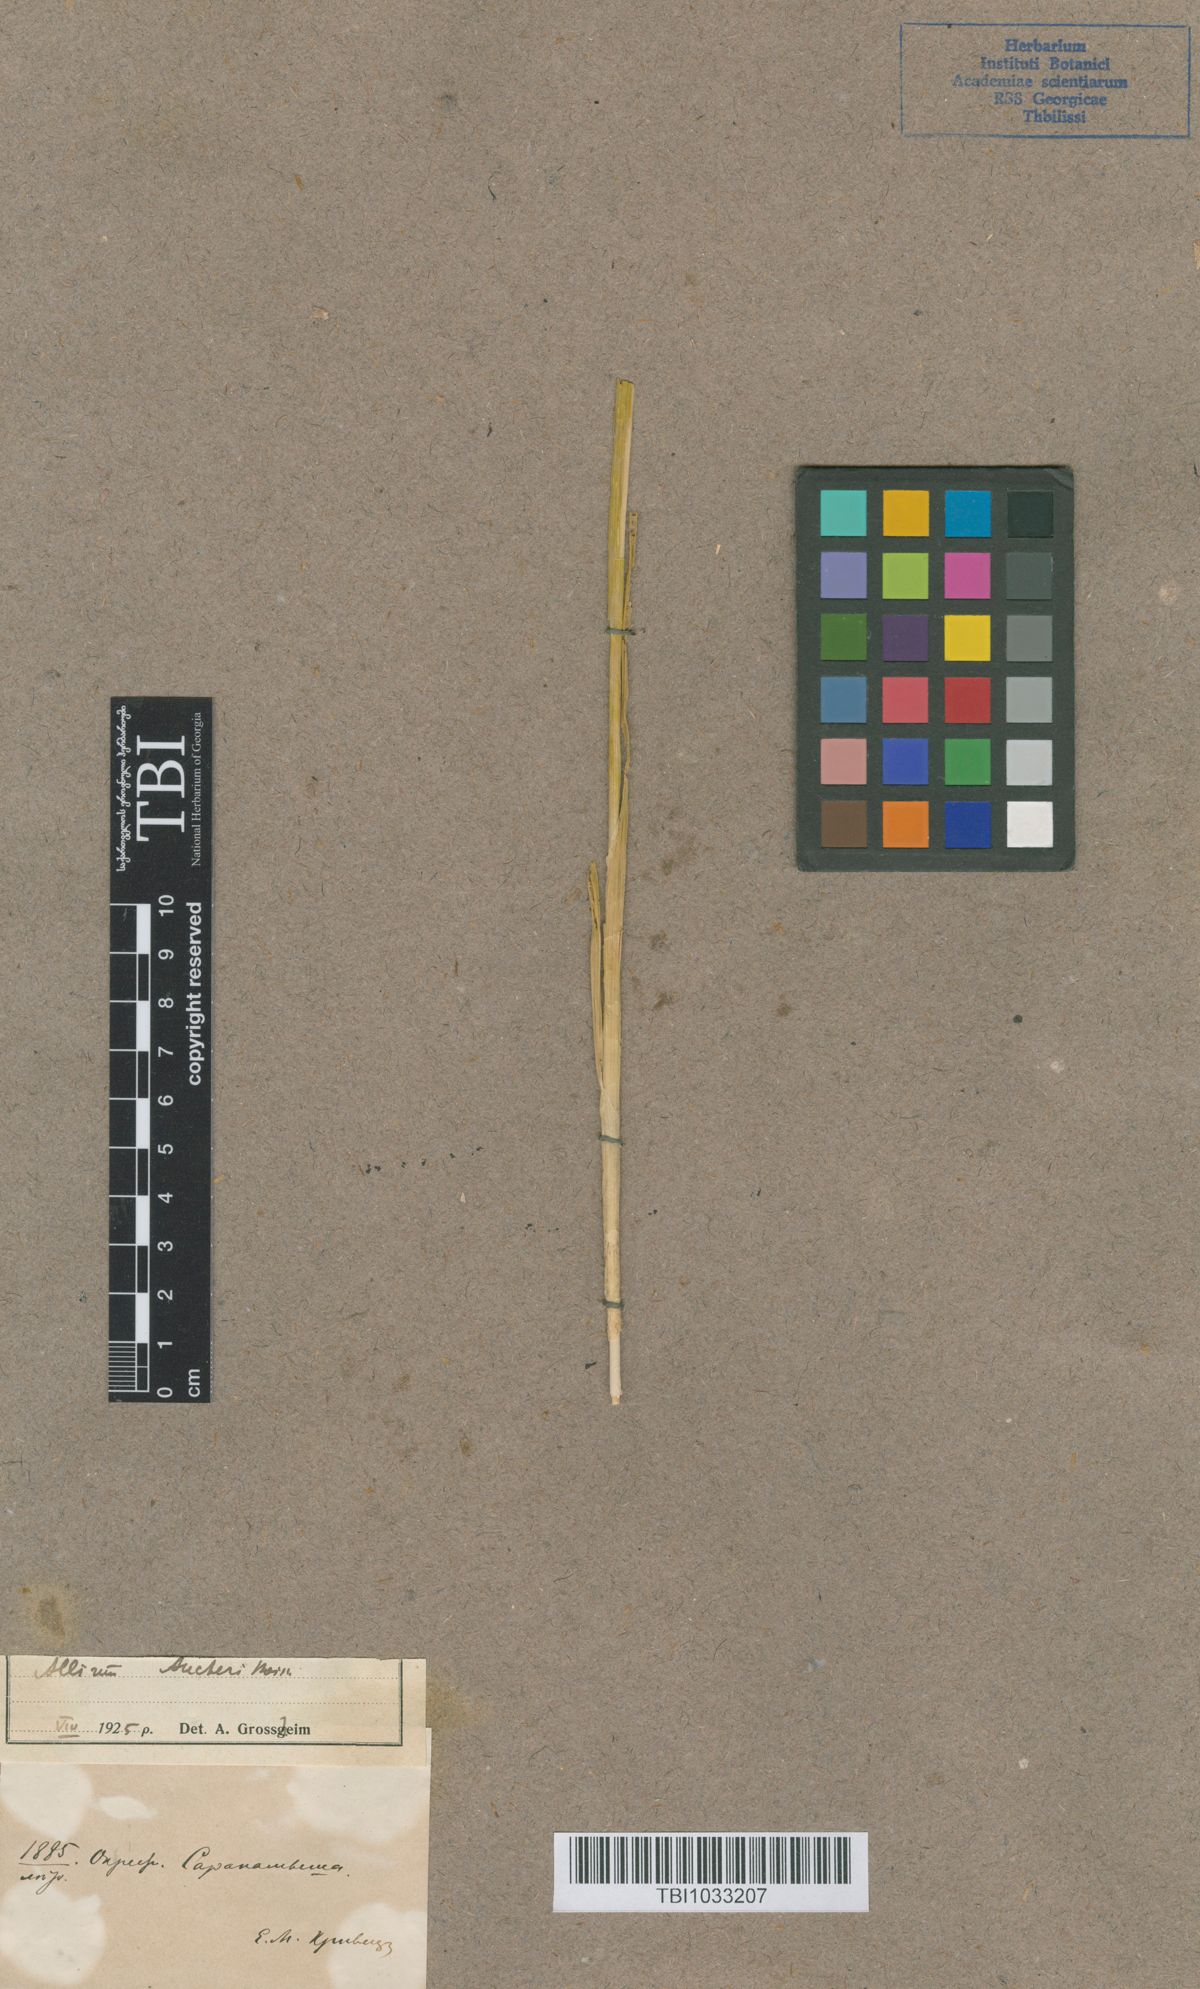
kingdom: Plantae
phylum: Tracheophyta
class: Liliopsida
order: Asparagales
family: Amaryllidaceae
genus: Allium
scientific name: Allium aucheri
